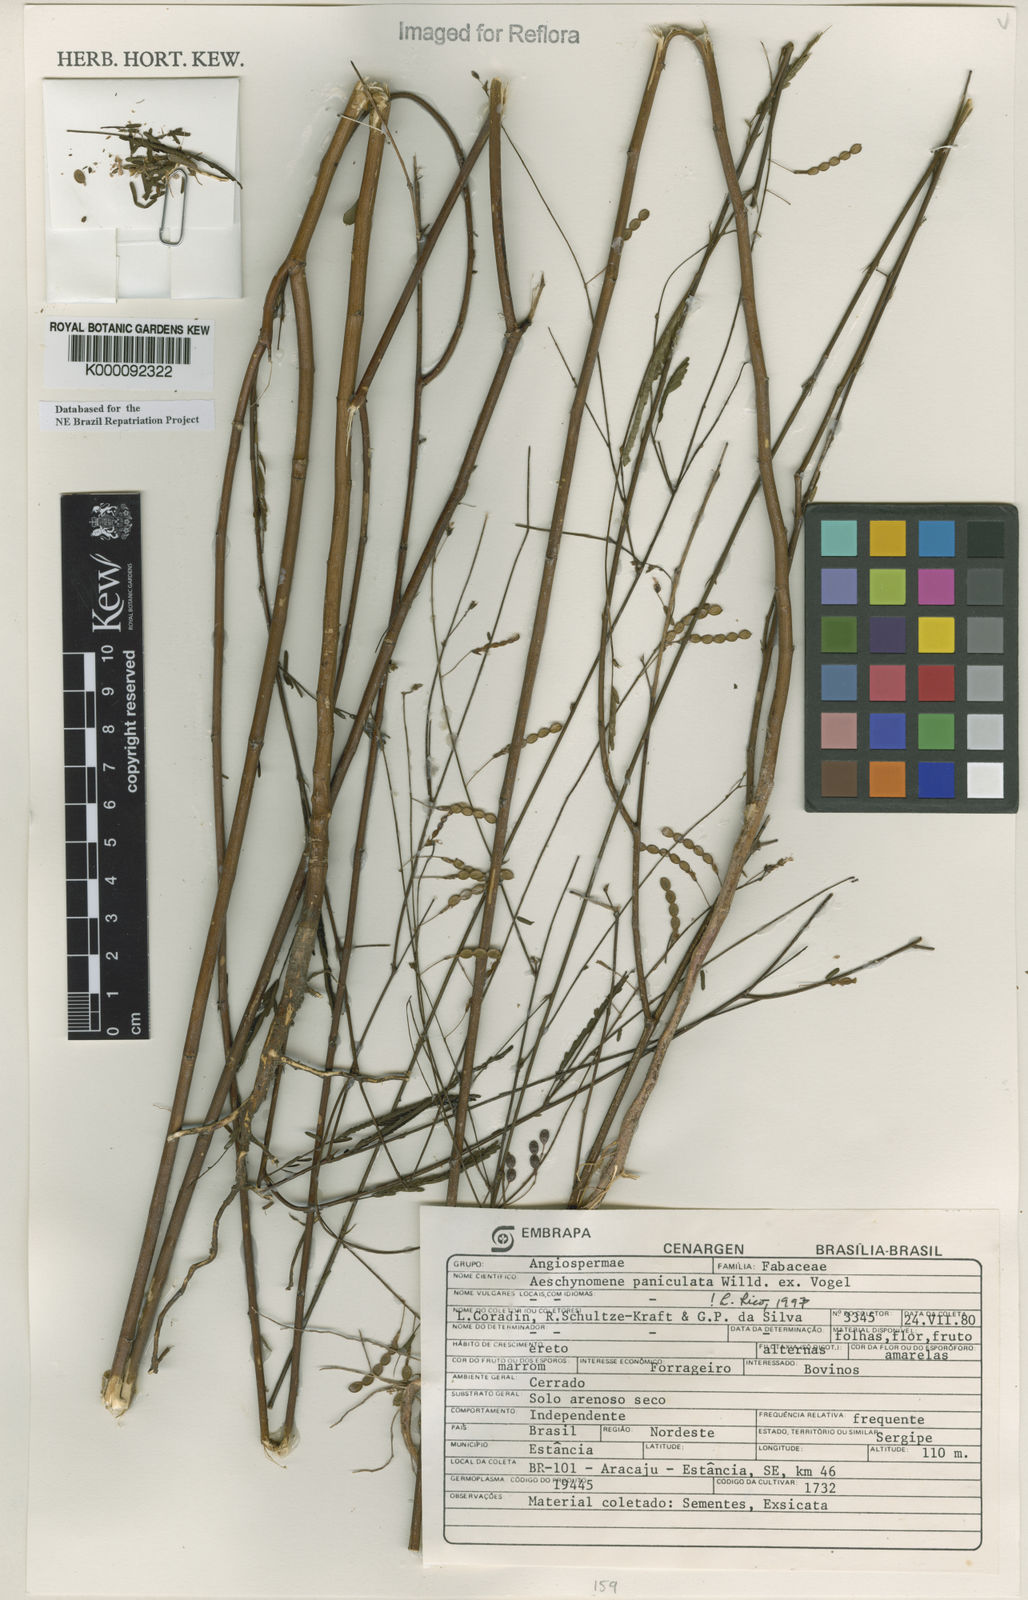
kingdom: Plantae
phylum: Tracheophyta
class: Magnoliopsida
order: Fabales
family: Fabaceae
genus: Ctenodon
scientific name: Ctenodon paniculatus
